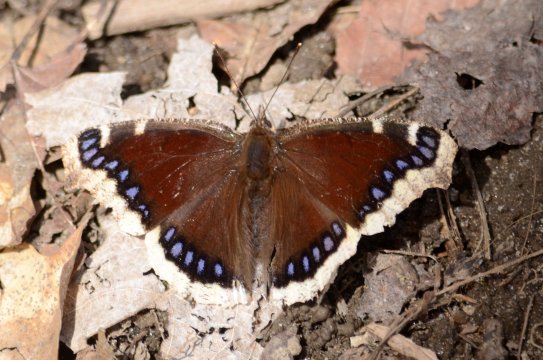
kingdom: Animalia
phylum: Arthropoda
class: Insecta
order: Lepidoptera
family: Nymphalidae
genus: Nymphalis
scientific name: Nymphalis antiopa
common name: Mourning Cloak
